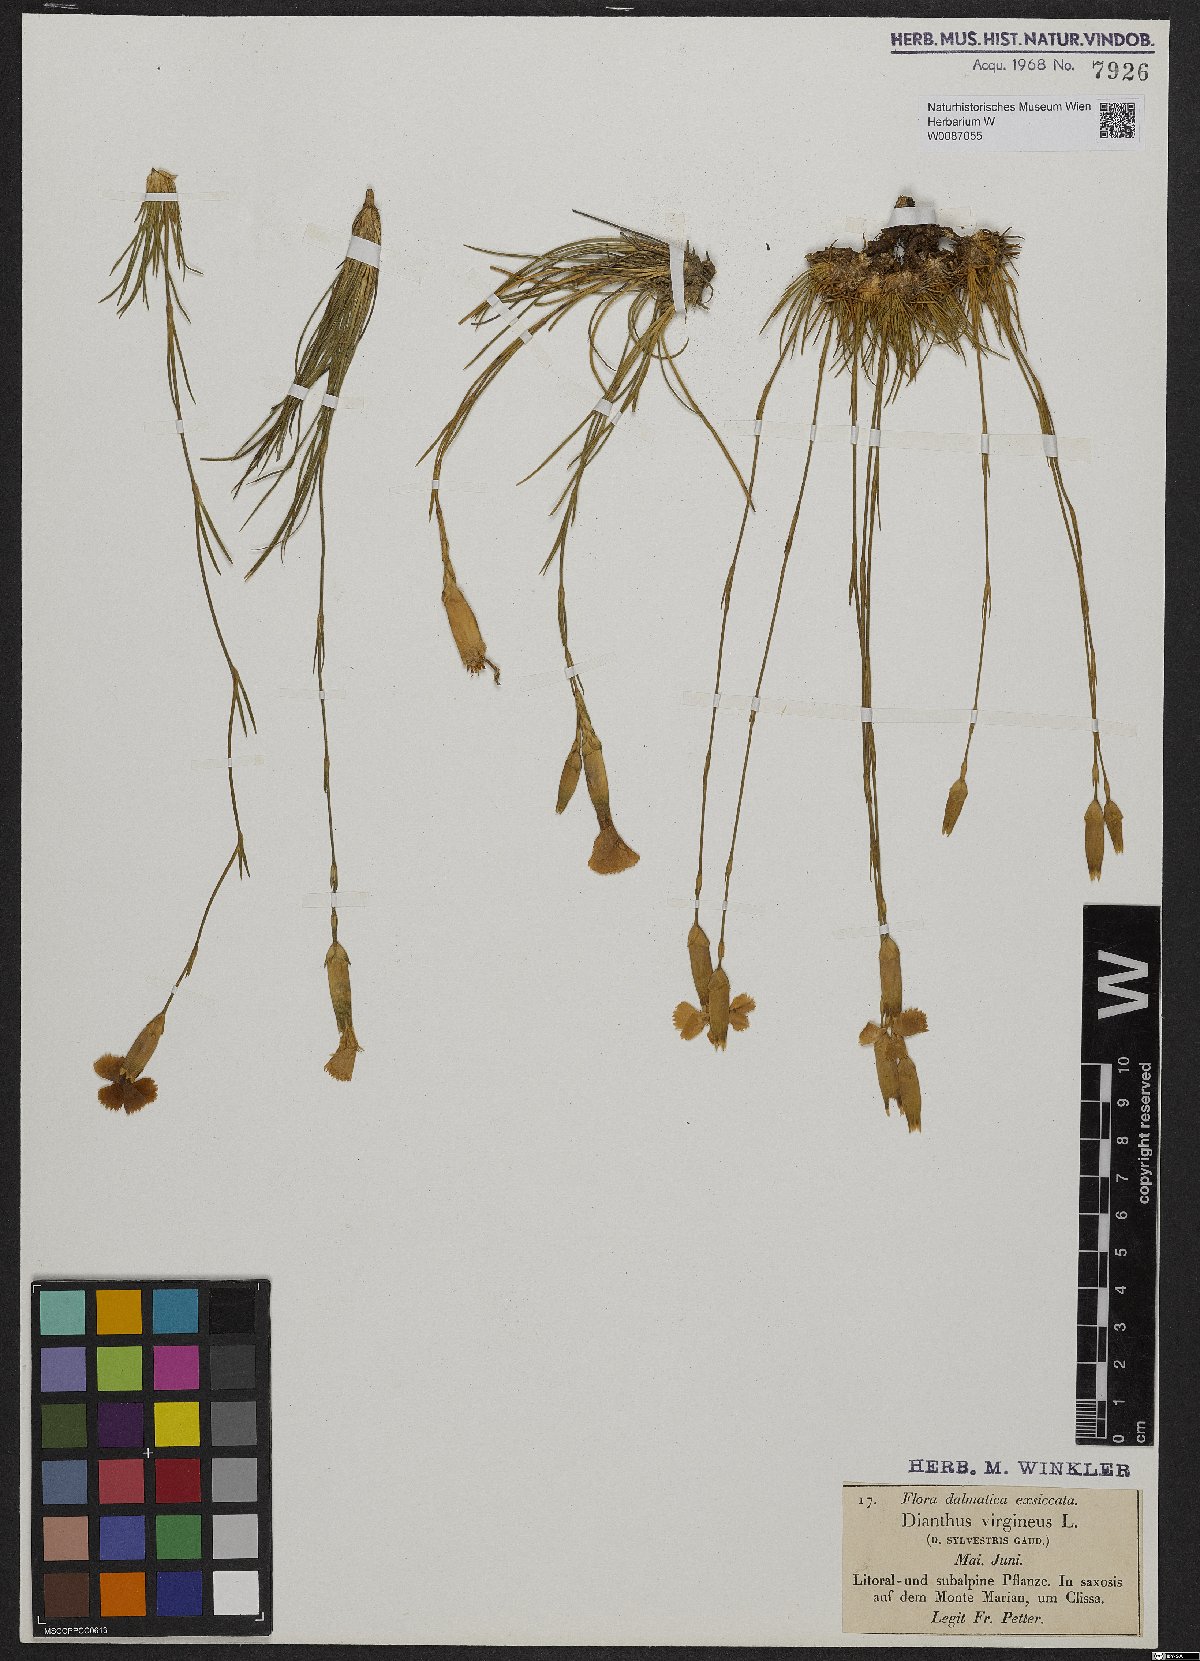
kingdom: Plantae
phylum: Tracheophyta
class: Magnoliopsida
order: Caryophyllales
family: Caryophyllaceae
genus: Dianthus
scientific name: Dianthus virgineus
